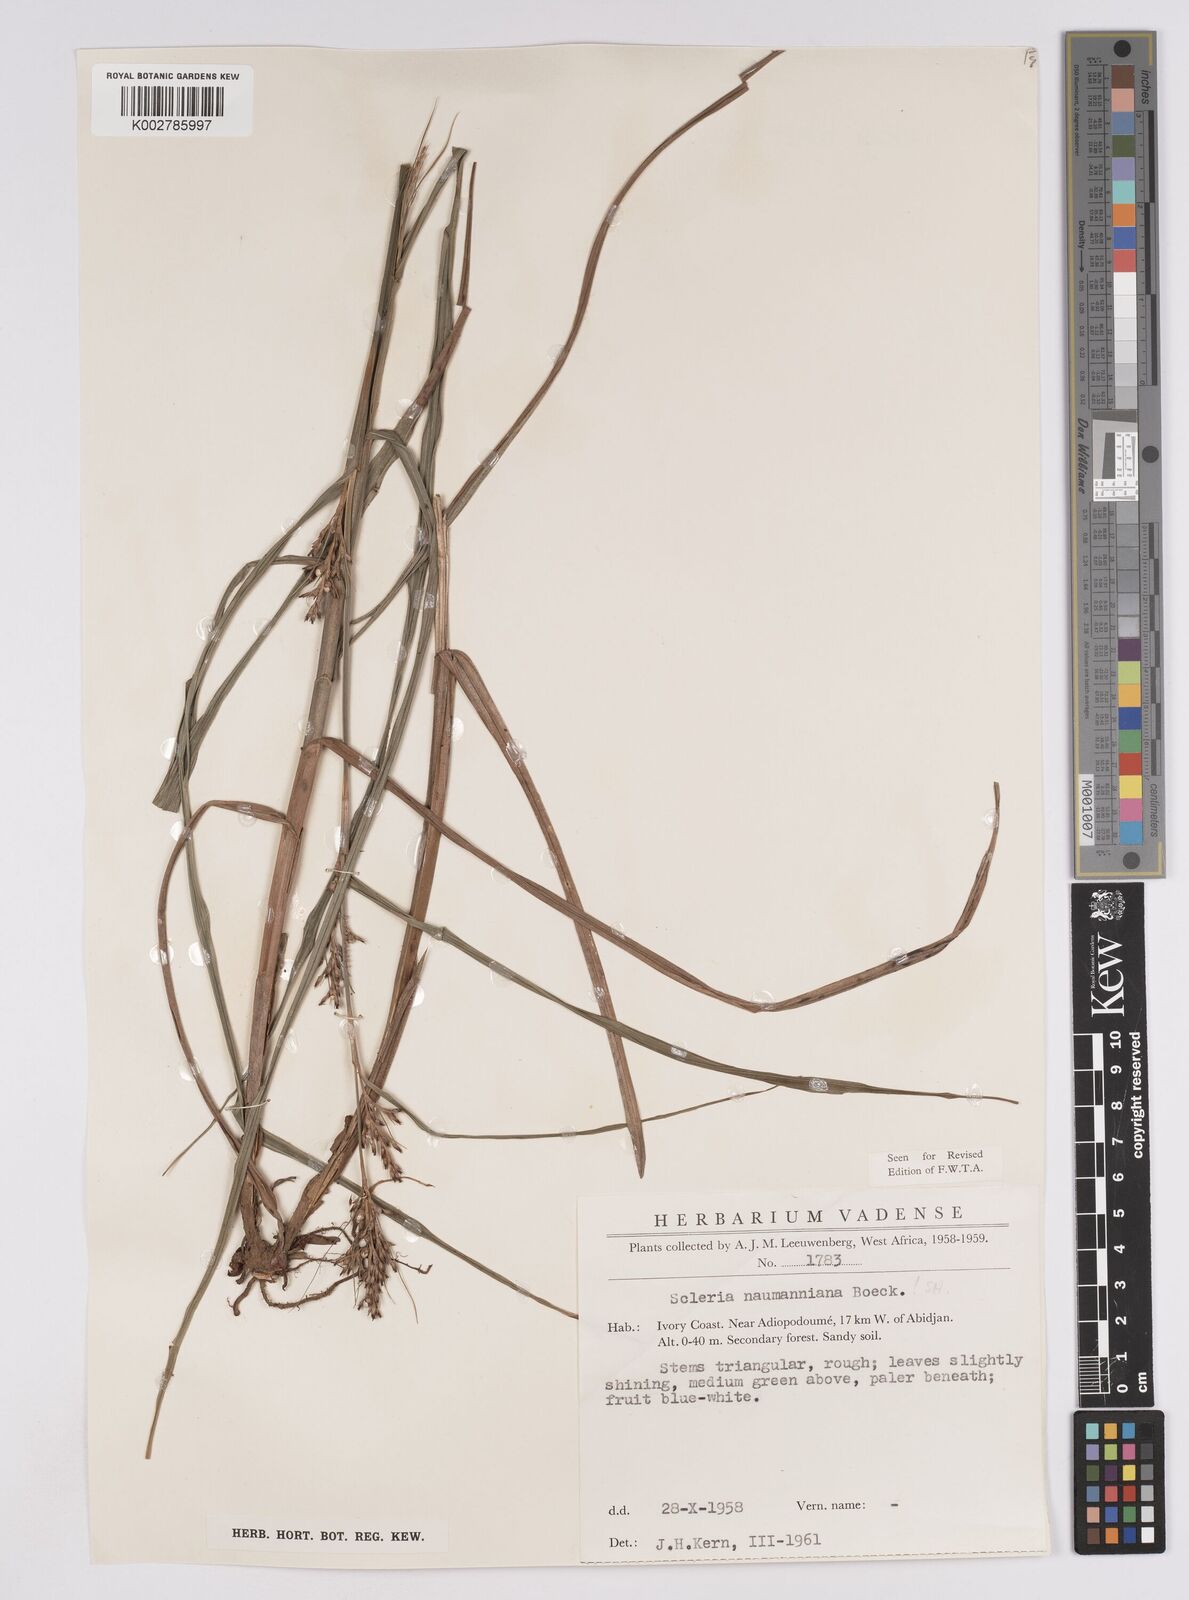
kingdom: Plantae
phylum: Tracheophyta
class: Liliopsida
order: Poales
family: Cyperaceae
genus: Scleria
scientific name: Scleria naumanniana
